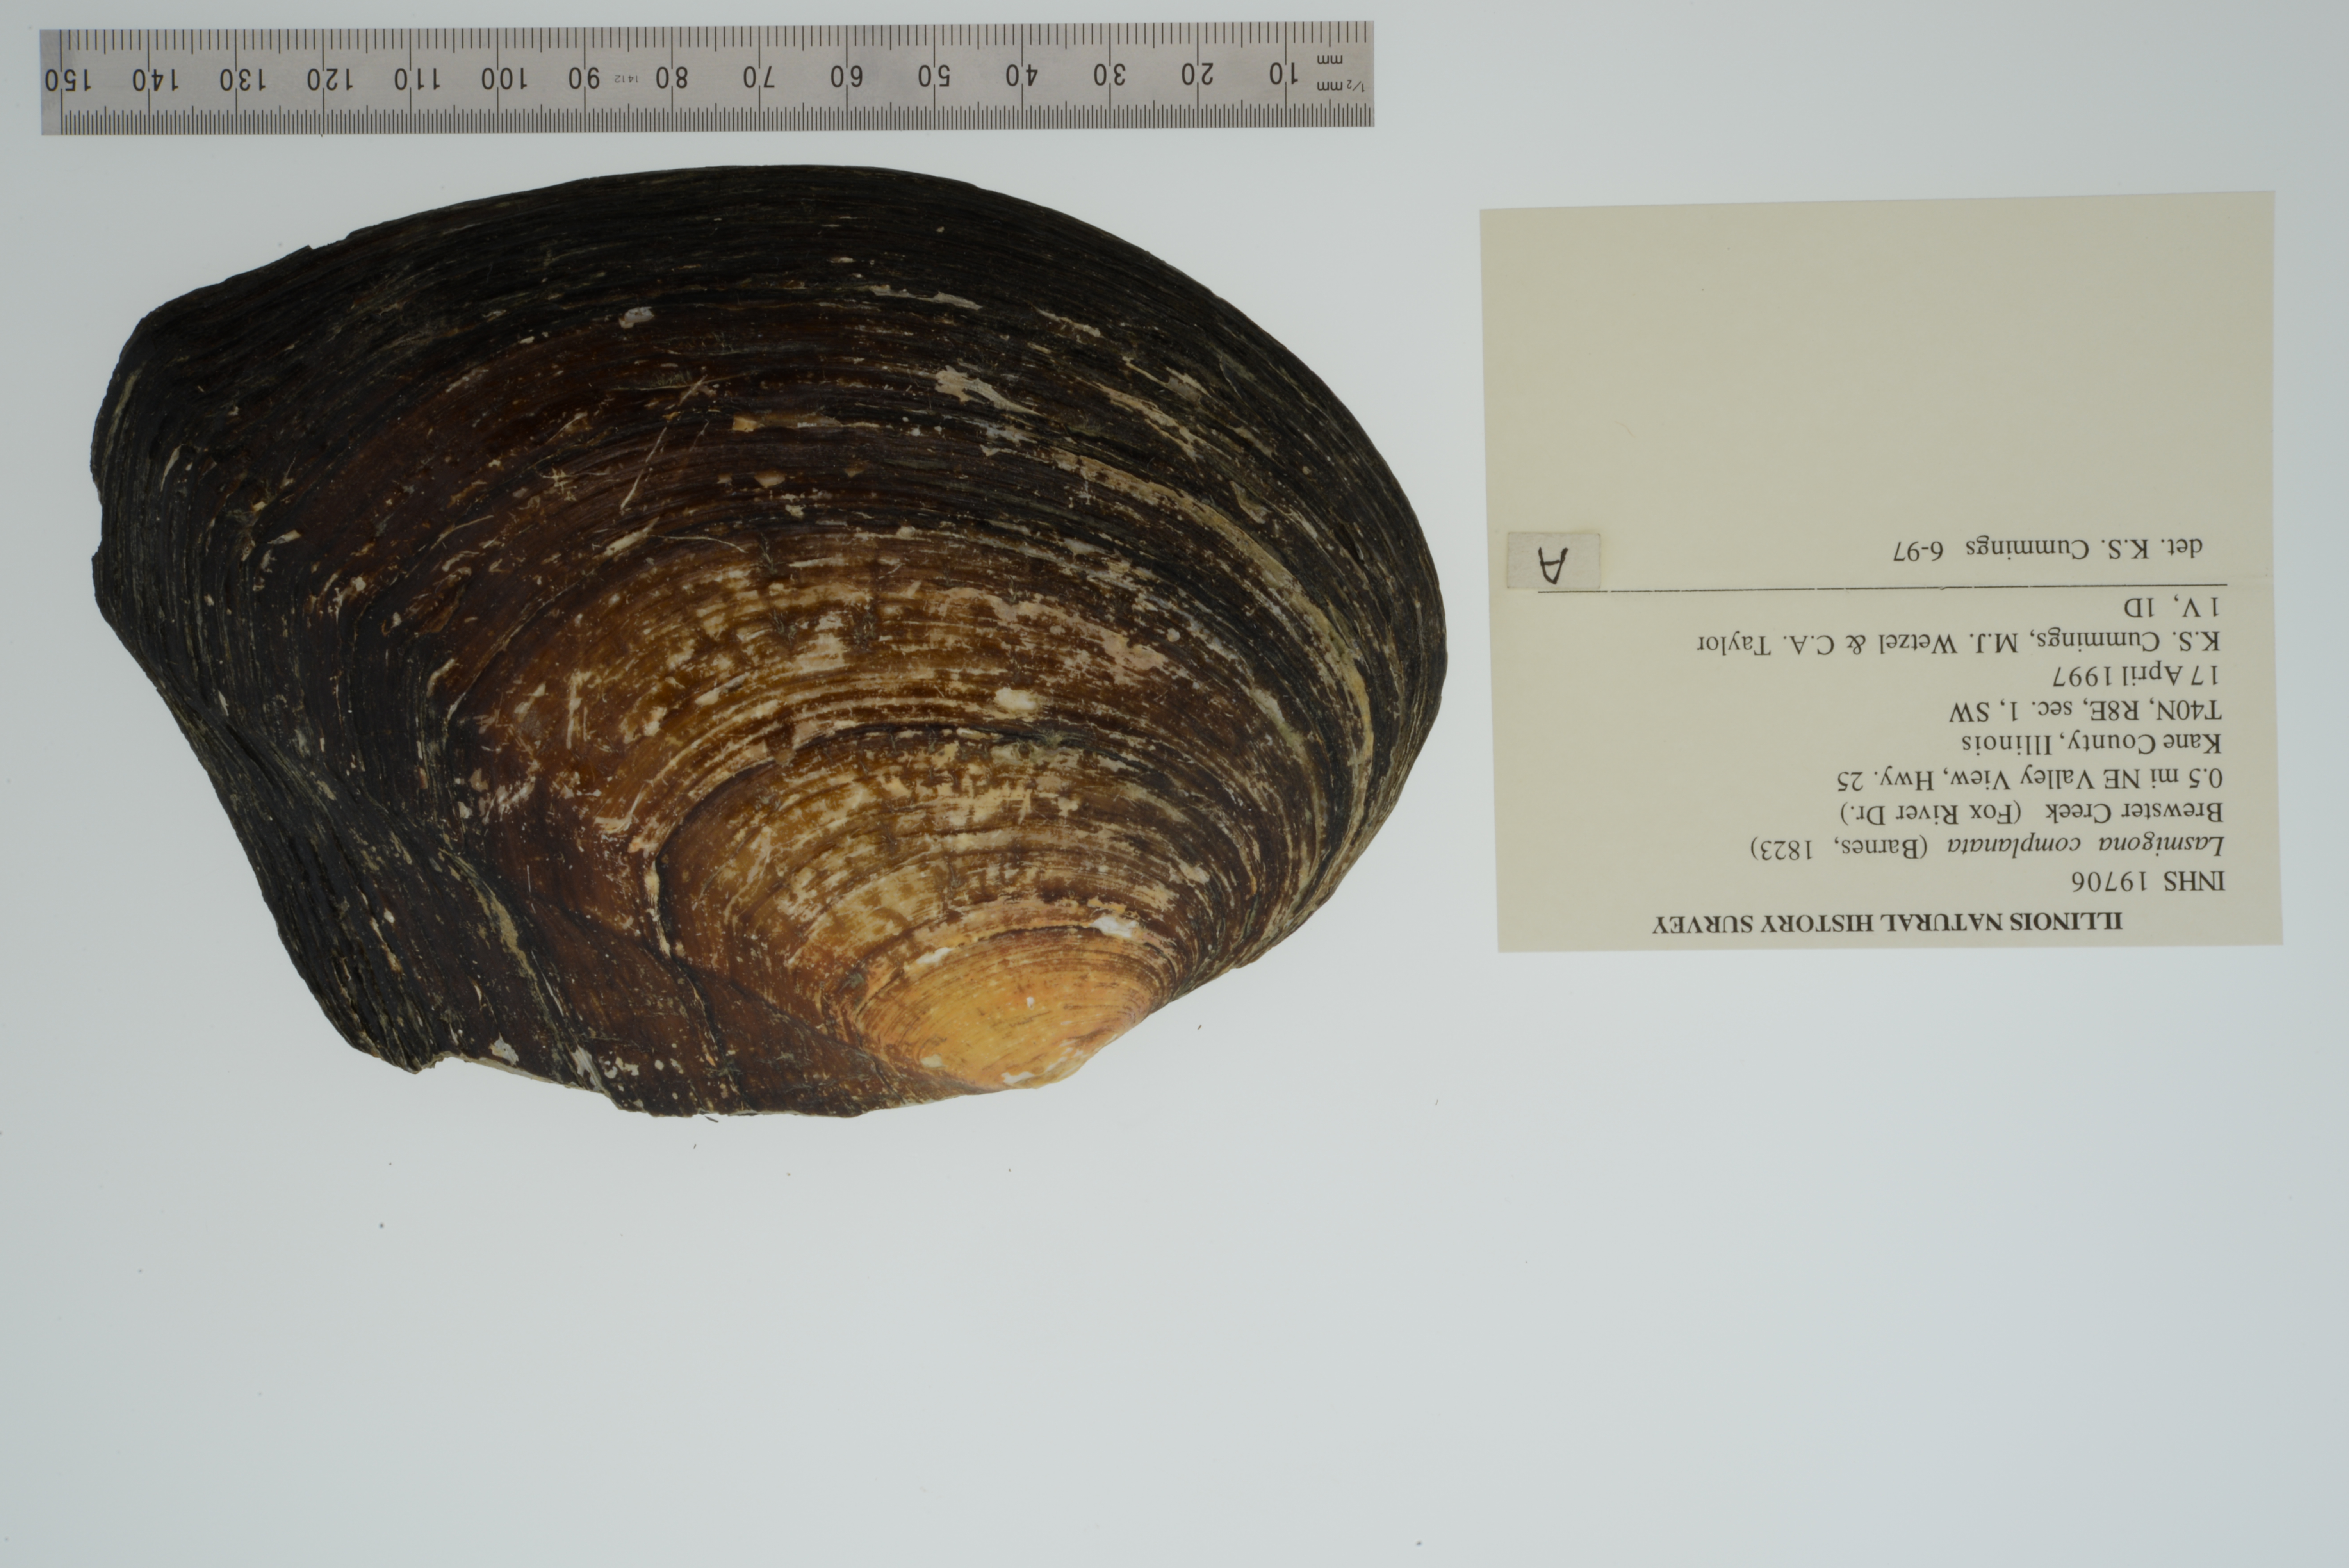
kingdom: Animalia
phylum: Mollusca
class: Bivalvia
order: Unionida
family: Unionidae
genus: Lasmigona
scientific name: Lasmigona complanata
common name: White heelsplitter
